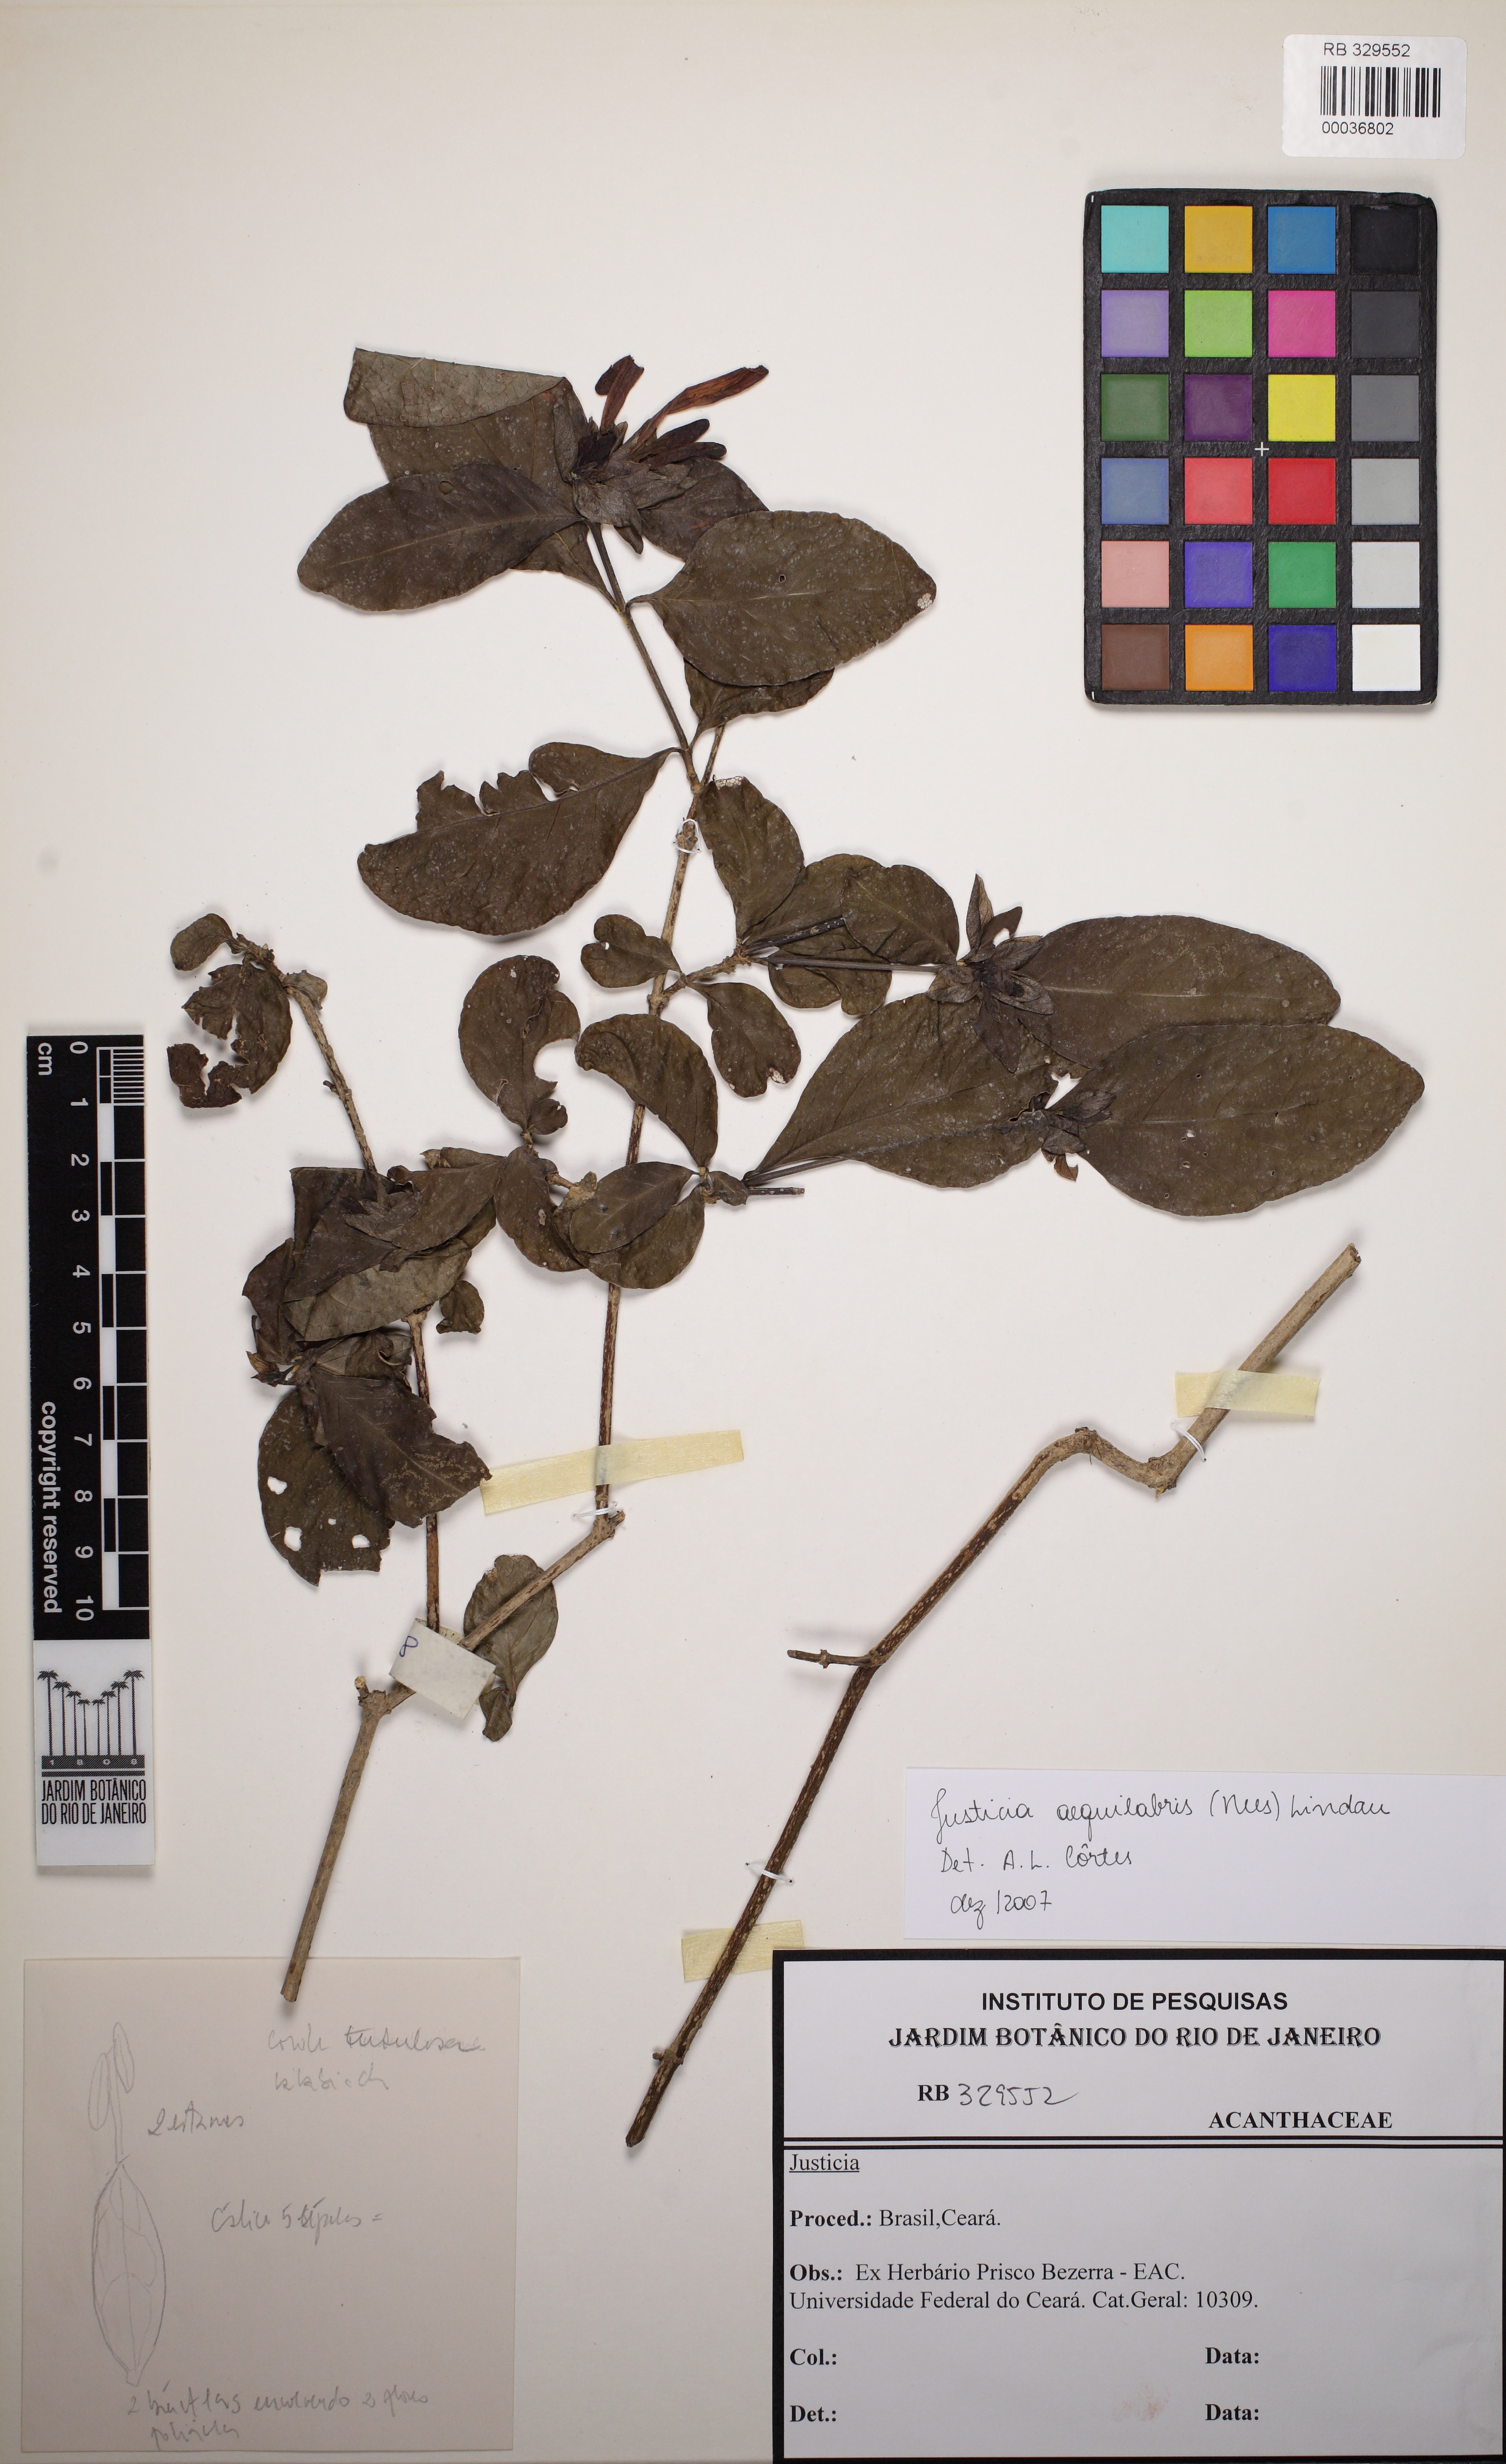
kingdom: Plantae
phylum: Tracheophyta
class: Magnoliopsida
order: Lamiales
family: Acanthaceae
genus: Justicia
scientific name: Justicia aequilabris
